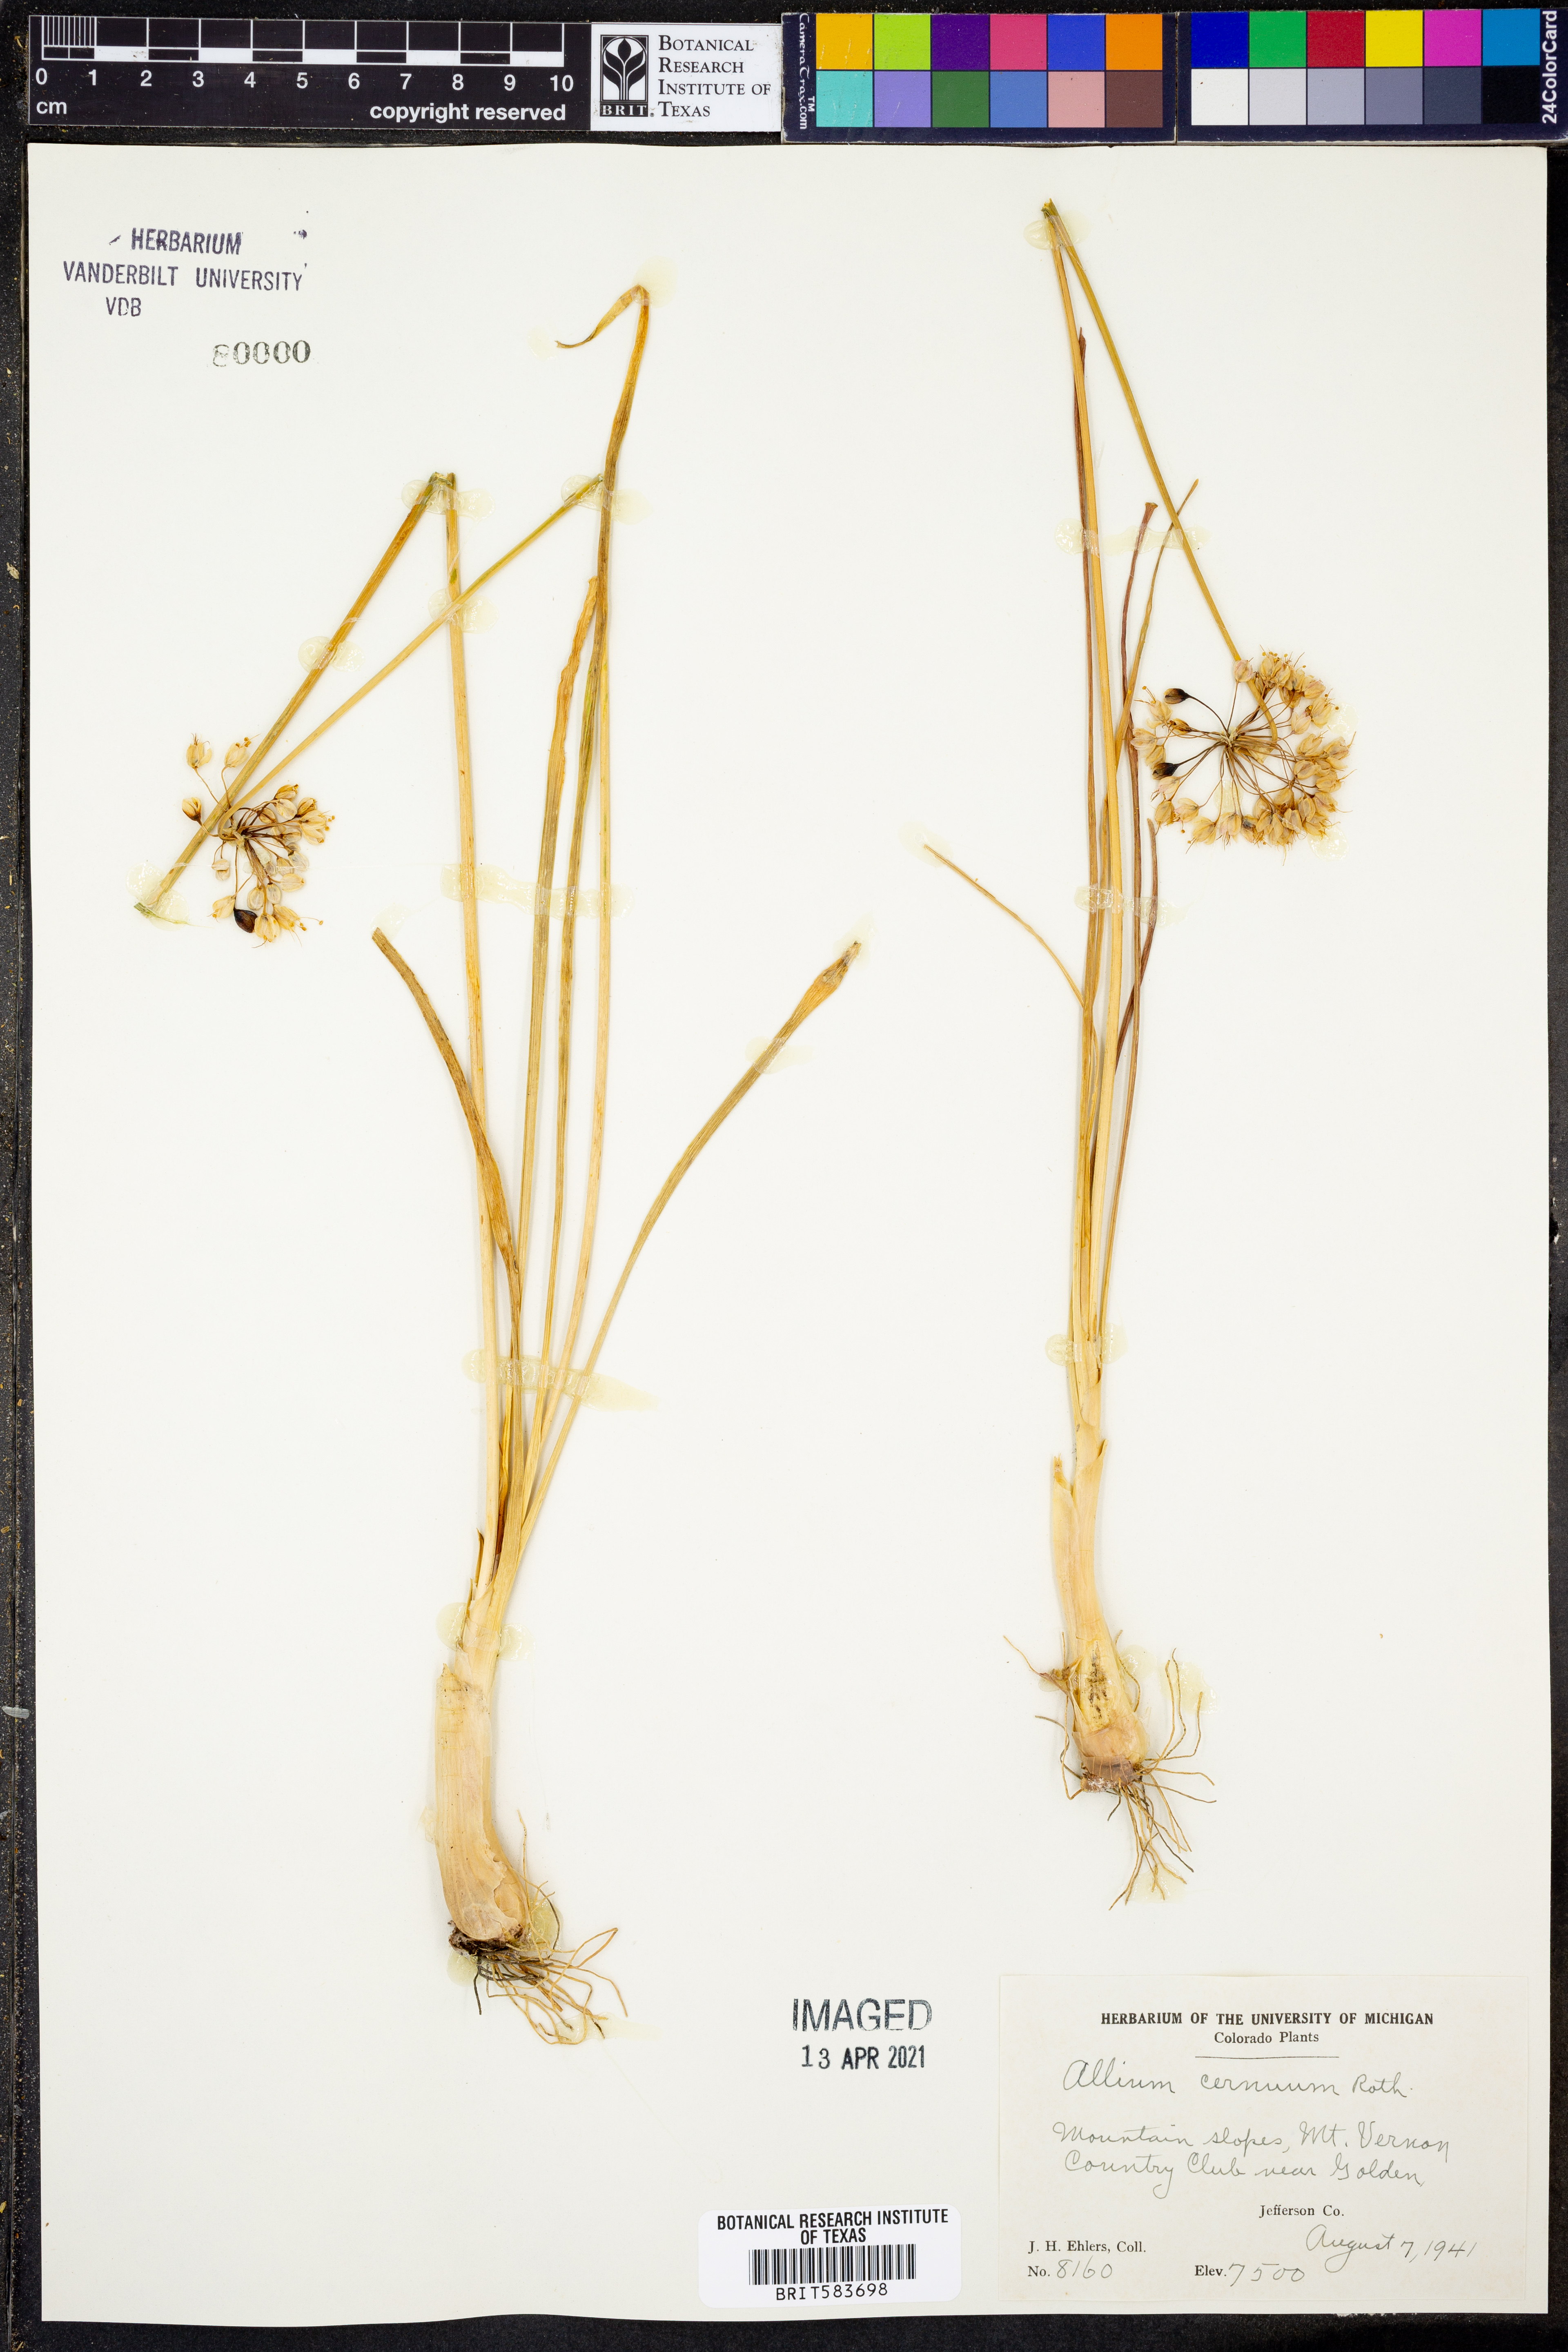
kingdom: Plantae
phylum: Tracheophyta
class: Liliopsida
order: Asparagales
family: Amaryllidaceae
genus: Allium
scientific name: Allium cernuum
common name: Nodding onion
